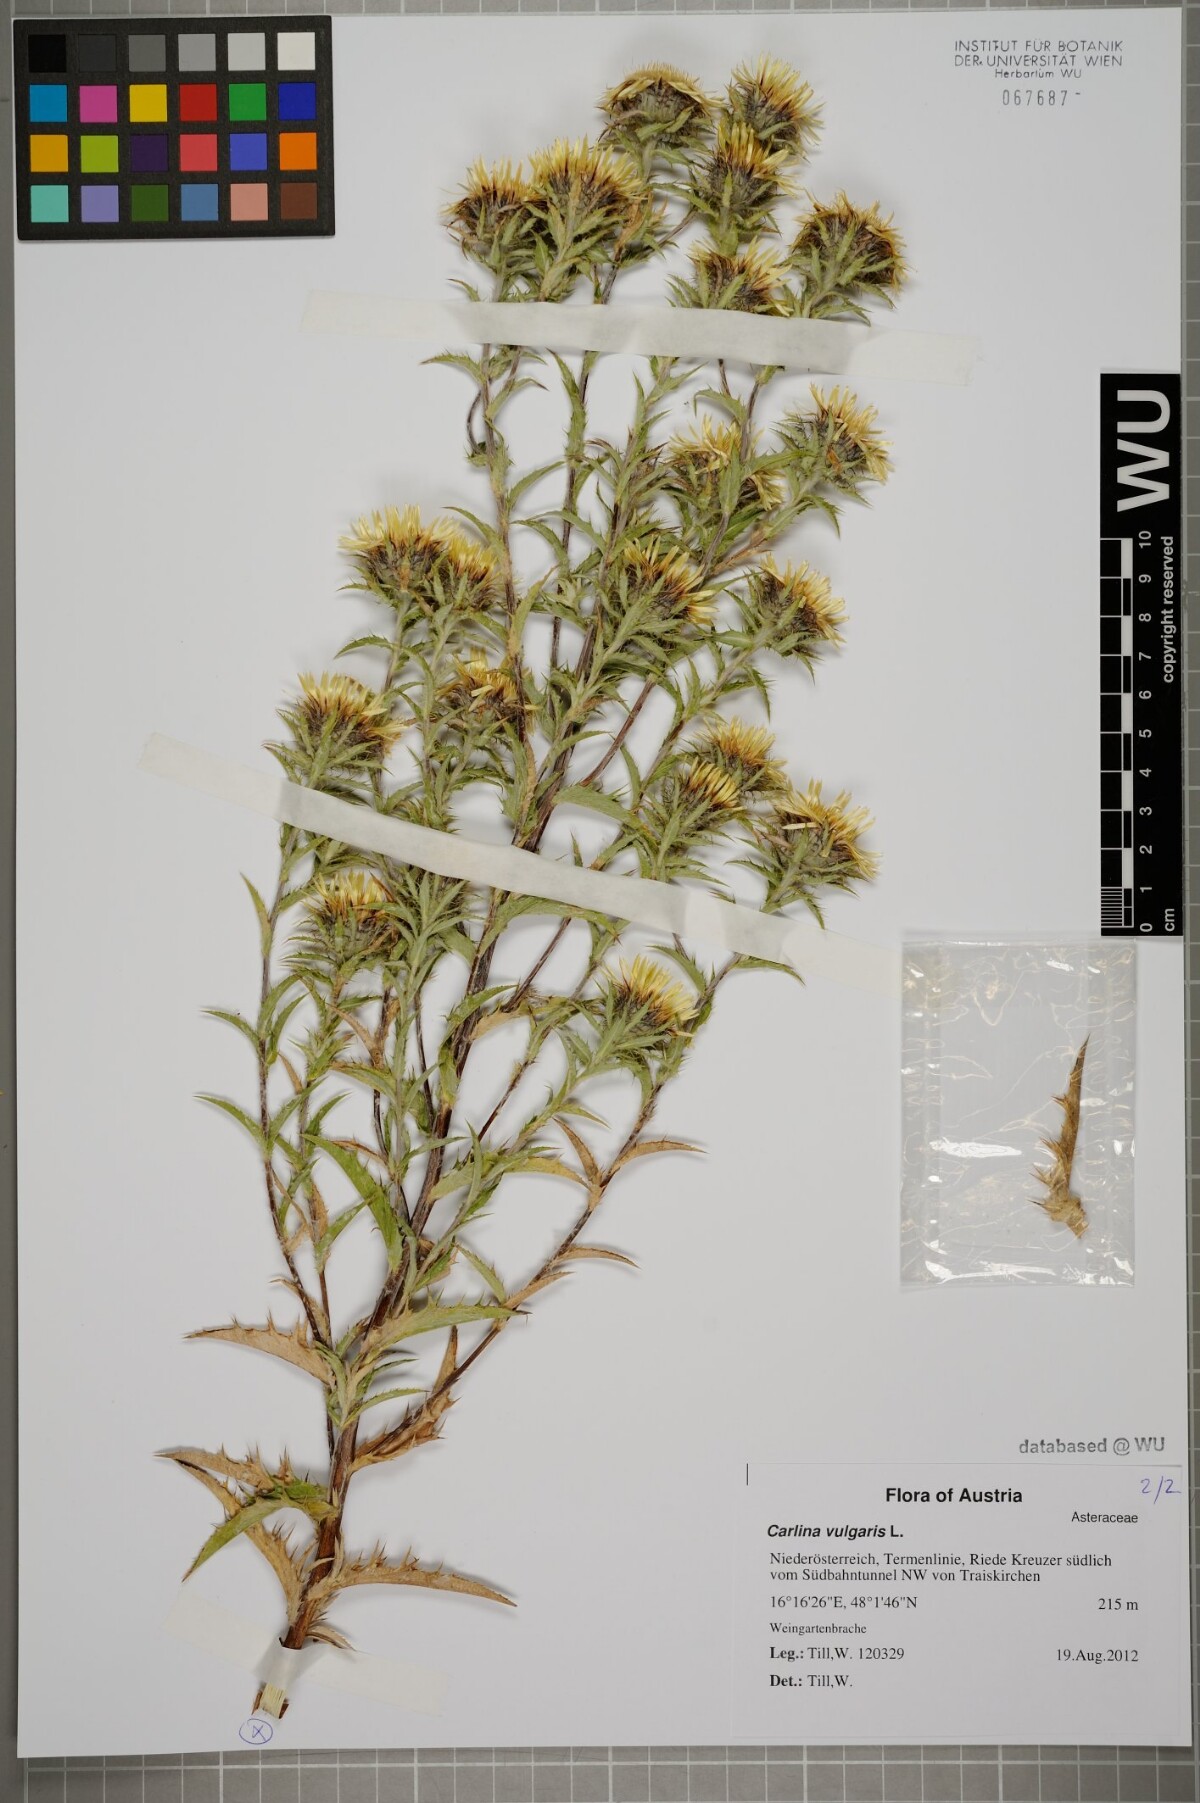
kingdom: Plantae
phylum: Tracheophyta
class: Magnoliopsida
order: Asterales
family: Asteraceae
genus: Carlina
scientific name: Carlina biebersteinii
